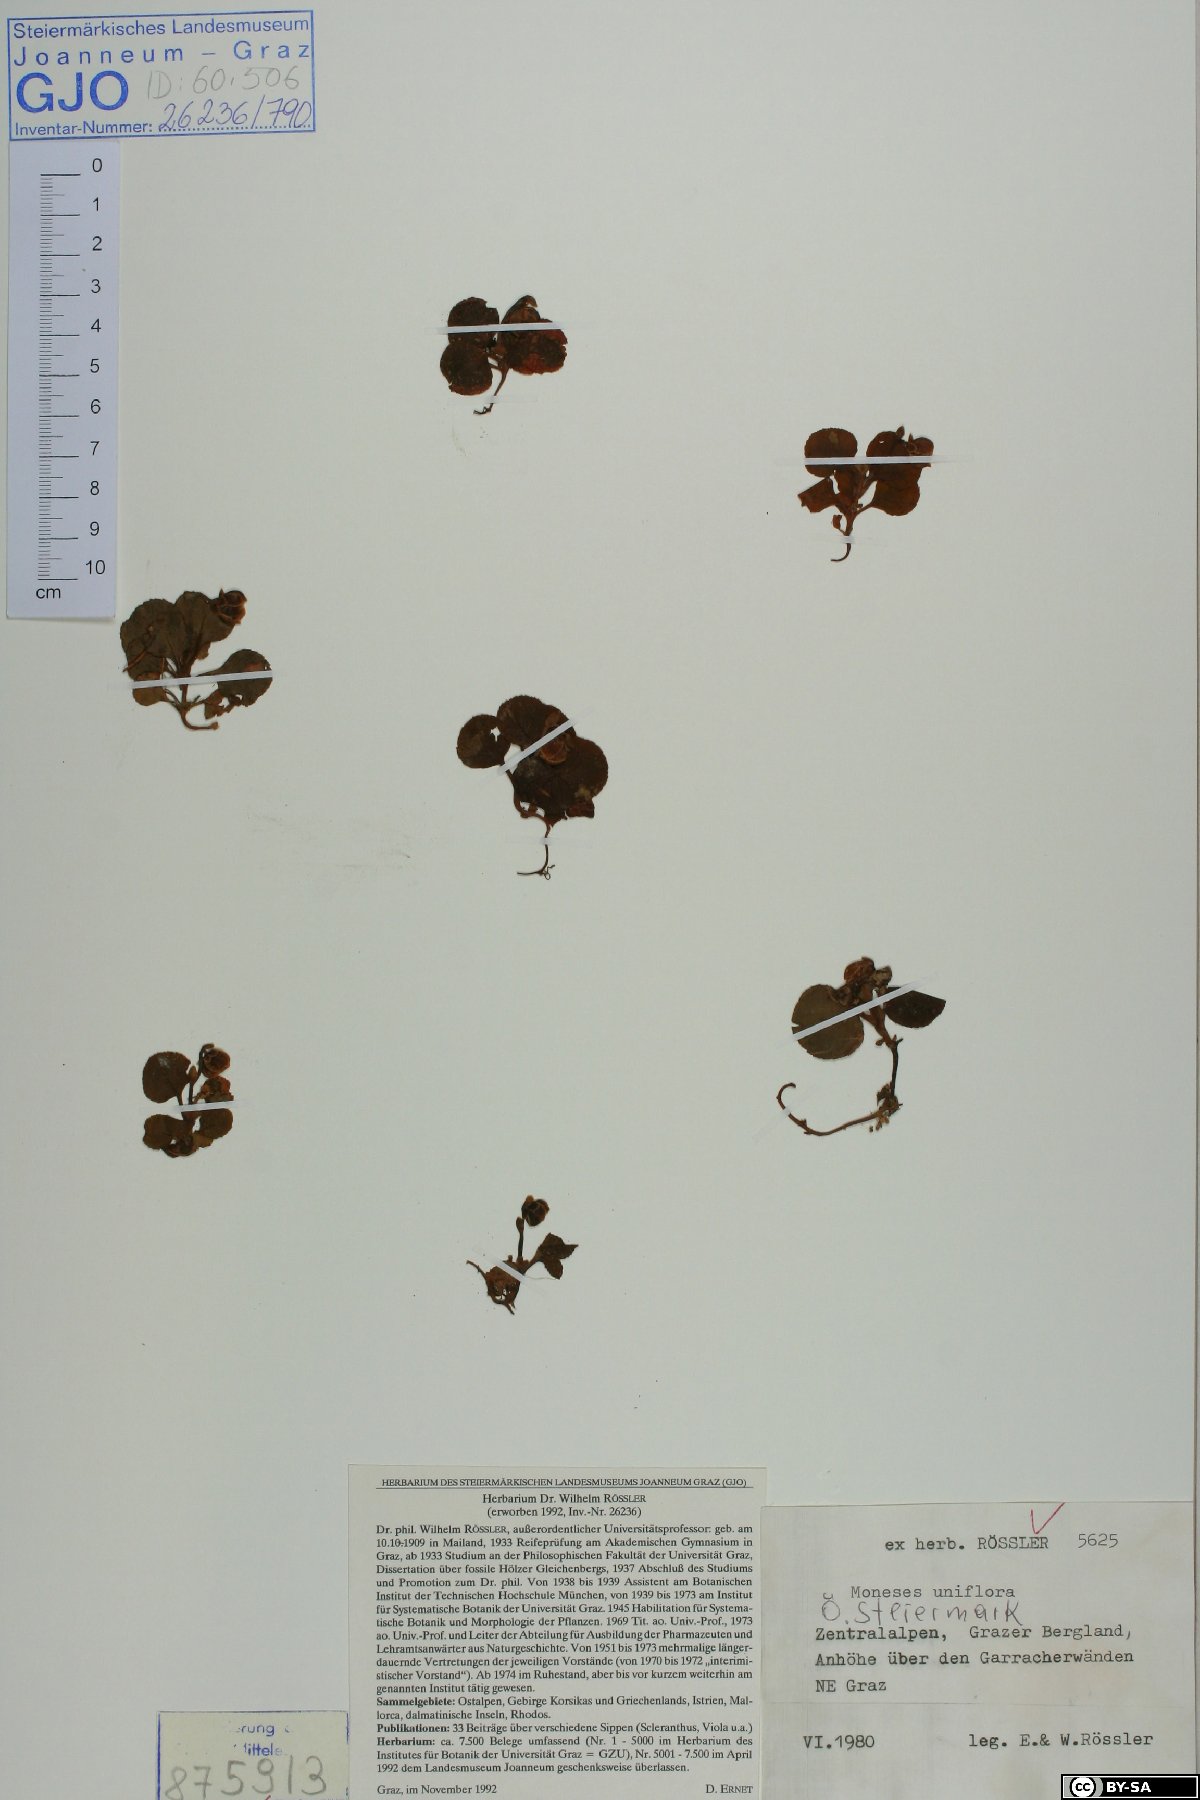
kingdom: Plantae
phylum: Tracheophyta
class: Magnoliopsida
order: Ericales
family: Ericaceae
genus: Moneses
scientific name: Moneses uniflora
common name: One-flowered wintergreen
